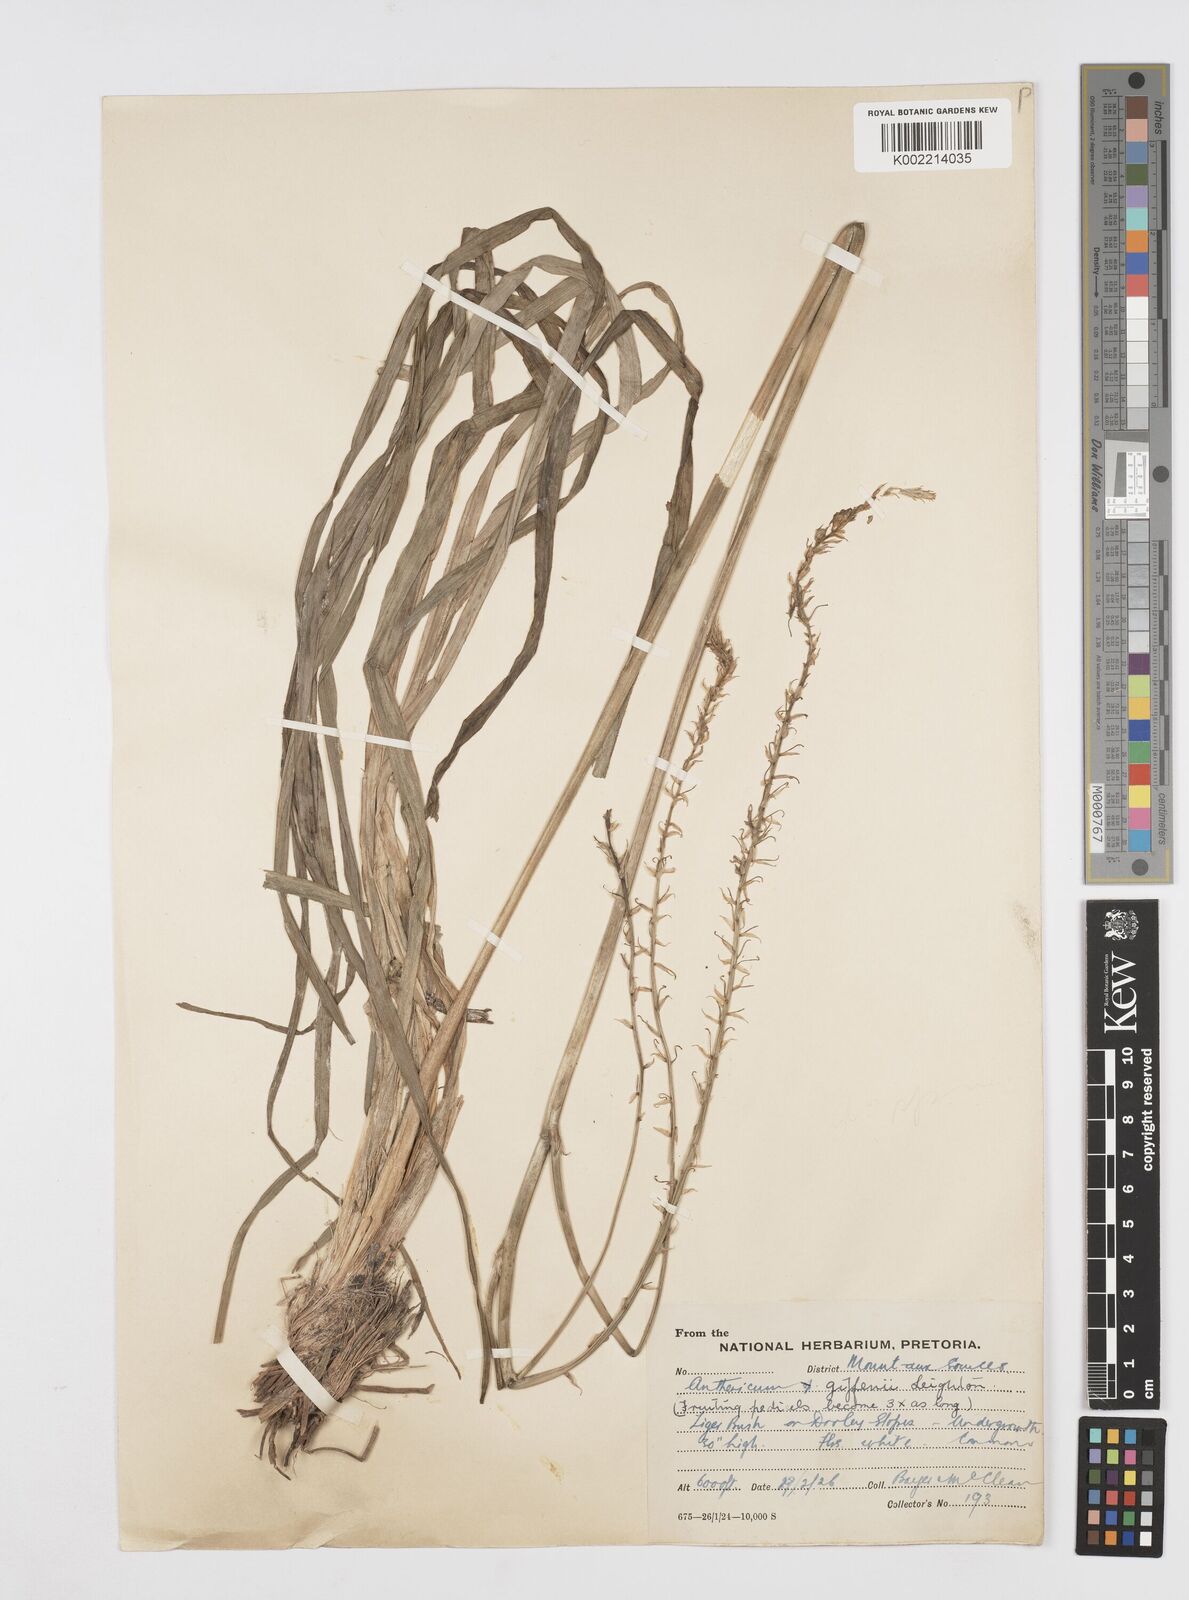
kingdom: Plantae
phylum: Tracheophyta
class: Liliopsida
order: Asparagales
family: Asphodelaceae
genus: Trachyandra
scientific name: Trachyandra giffenii
